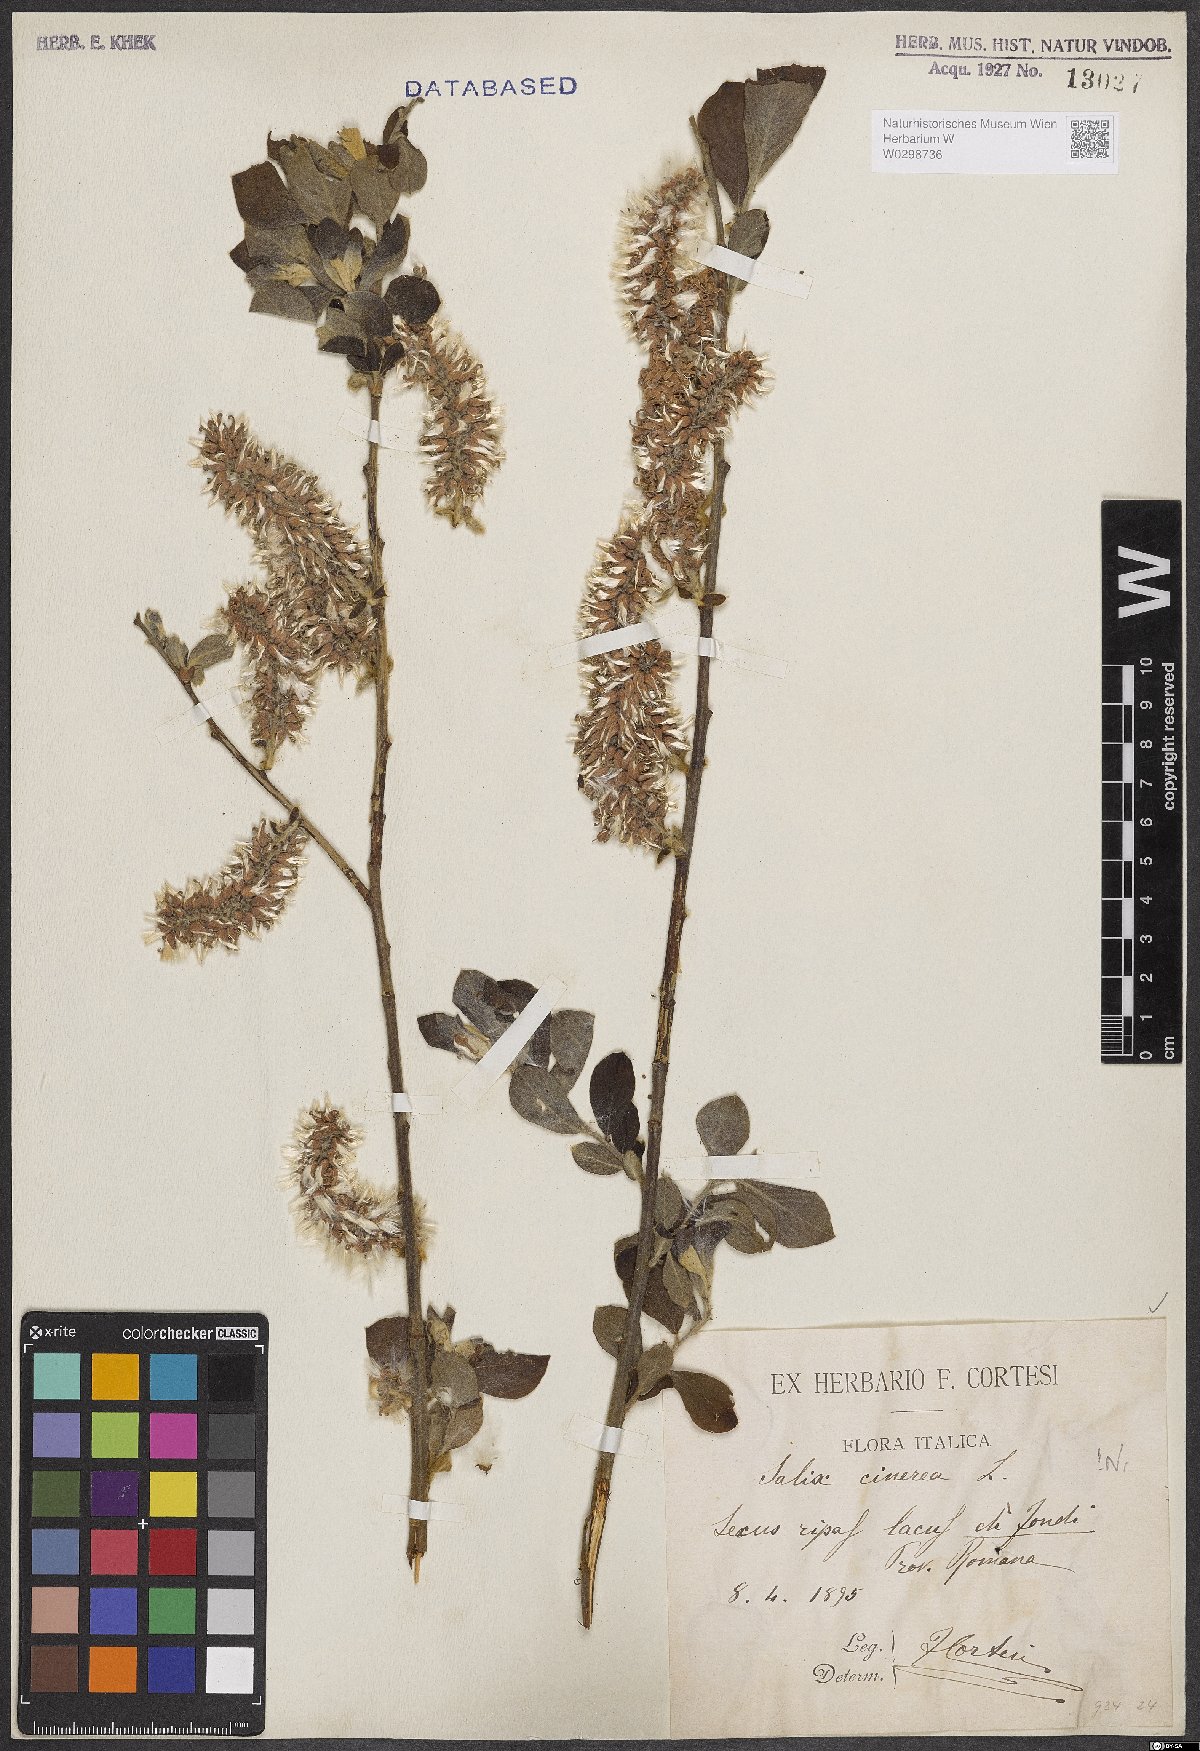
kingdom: Plantae
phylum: Tracheophyta
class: Magnoliopsida
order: Malpighiales
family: Salicaceae
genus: Salix
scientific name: Salix cinerea
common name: Common sallow
